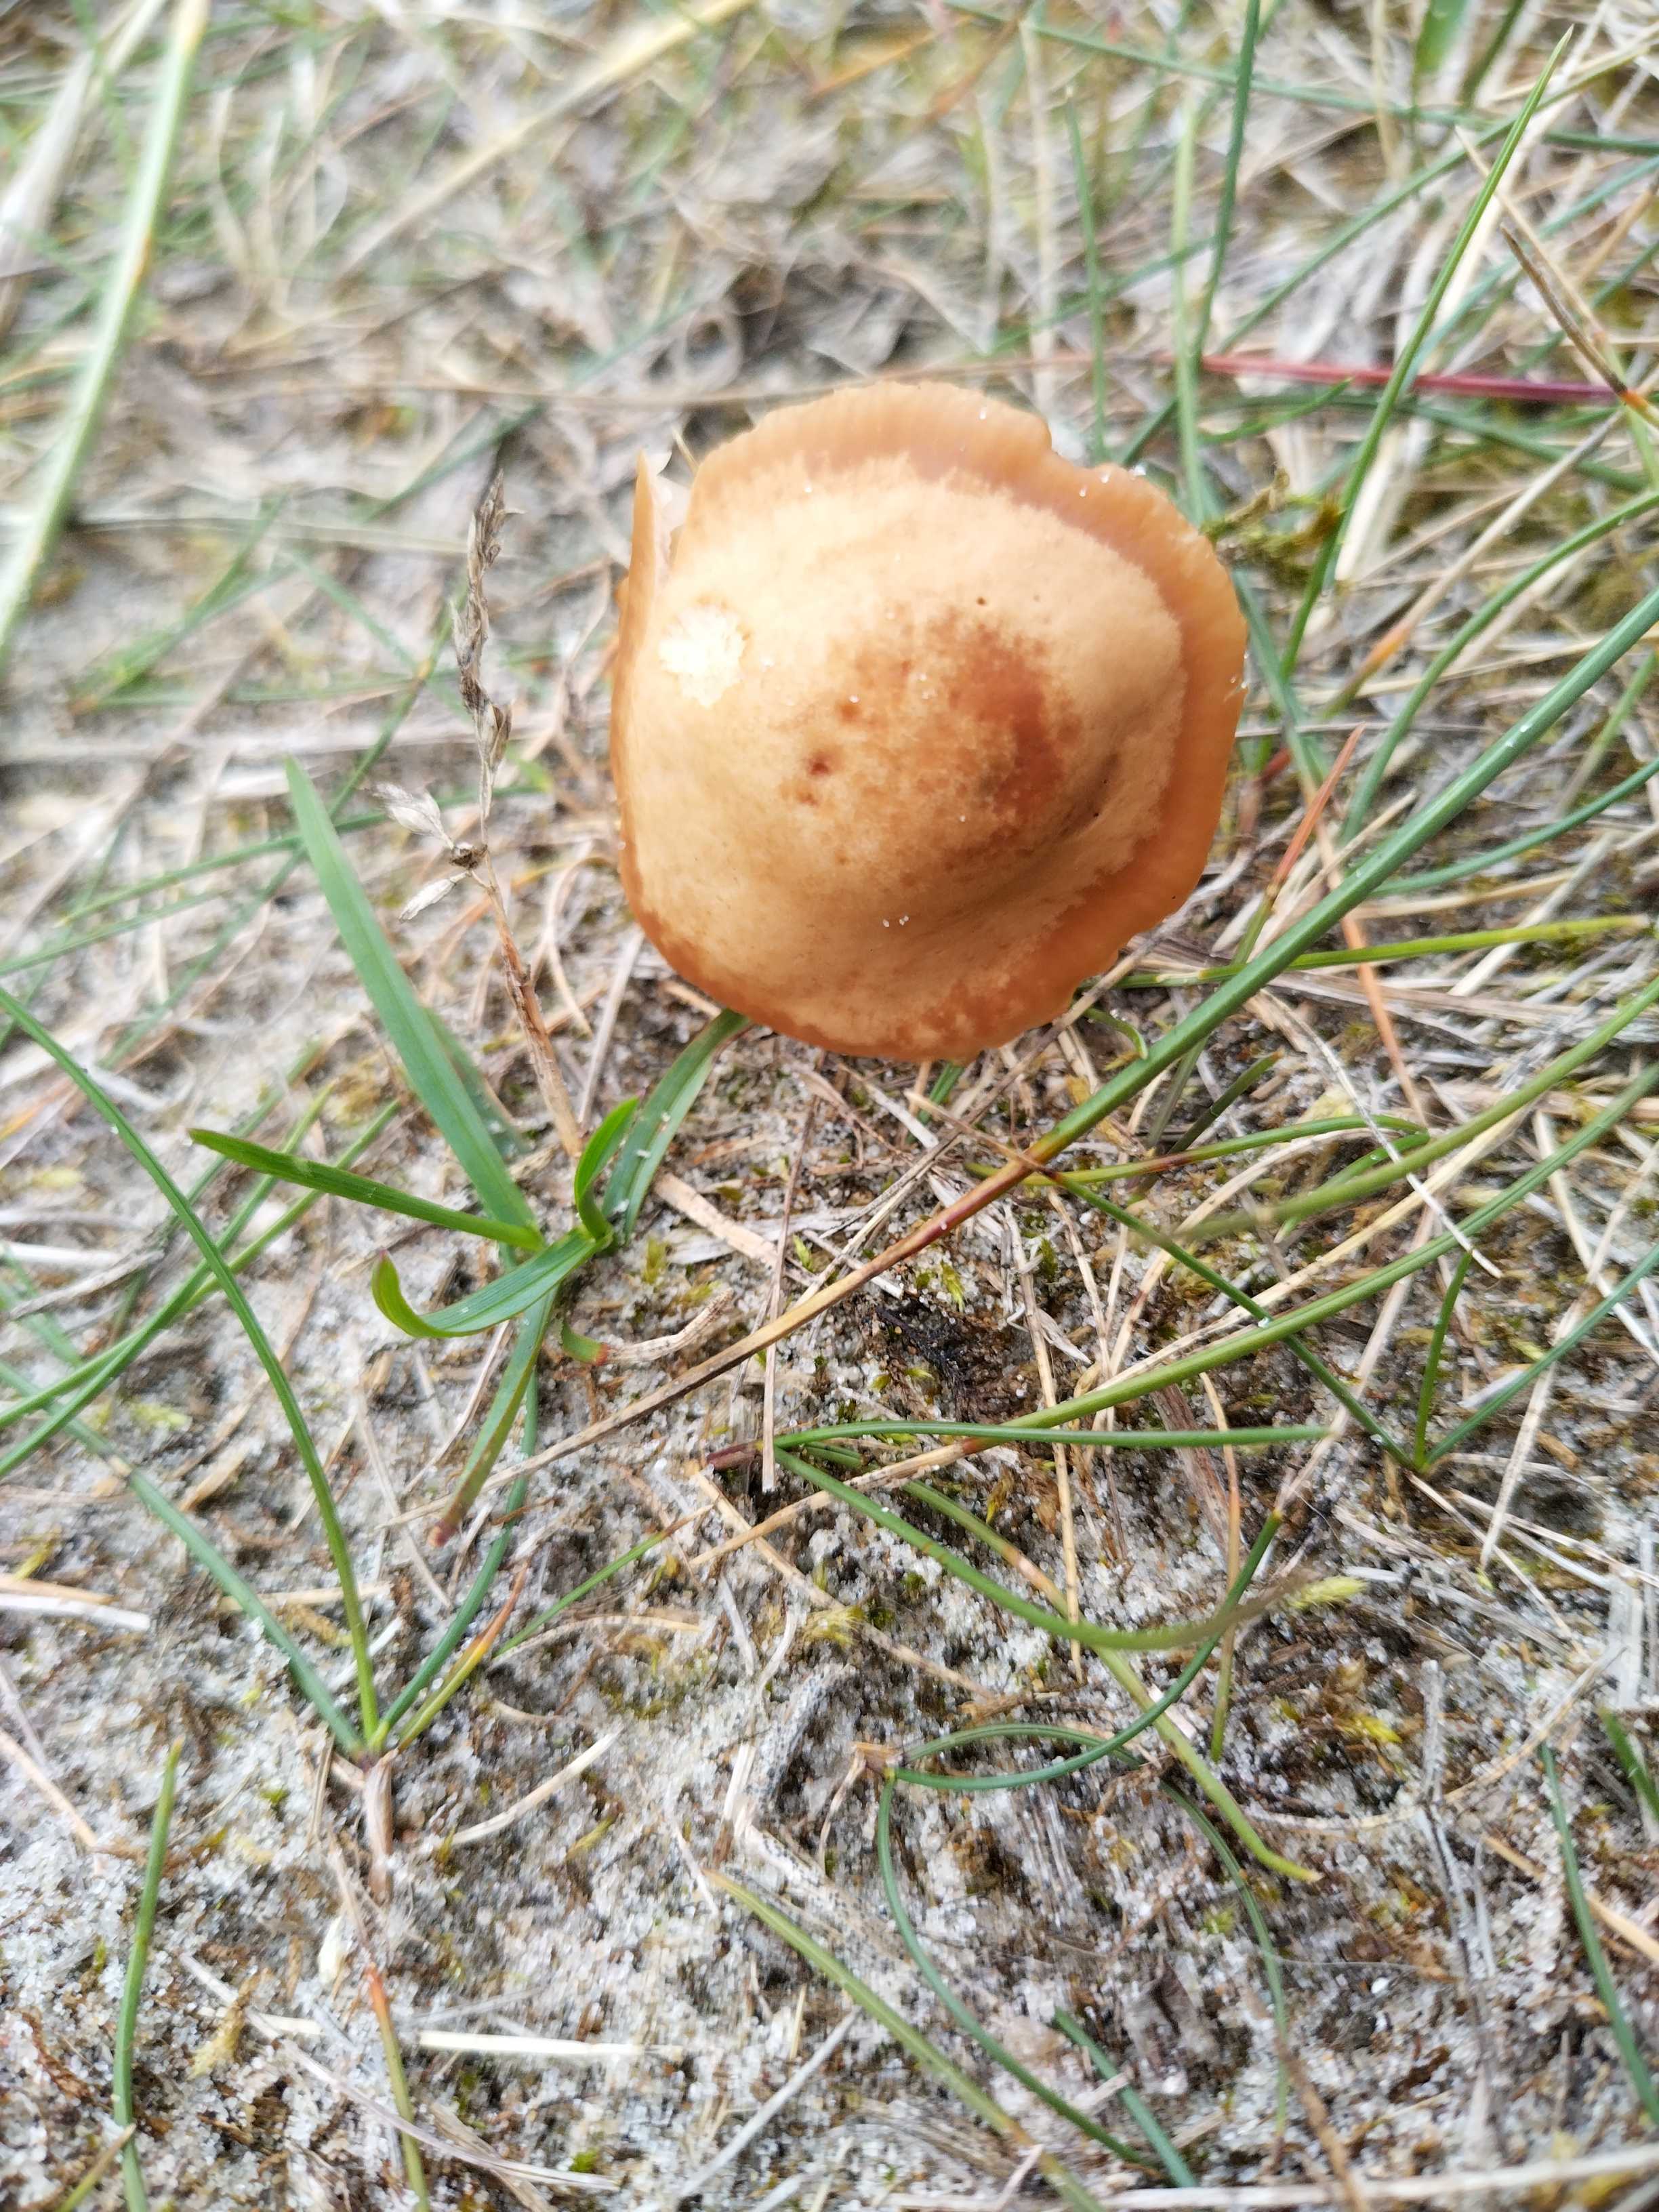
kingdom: Fungi
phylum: Basidiomycota
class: Agaricomycetes
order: Agaricales
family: Marasmiaceae
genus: Marasmius
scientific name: Marasmius oreades
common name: elledans-bruskhat
